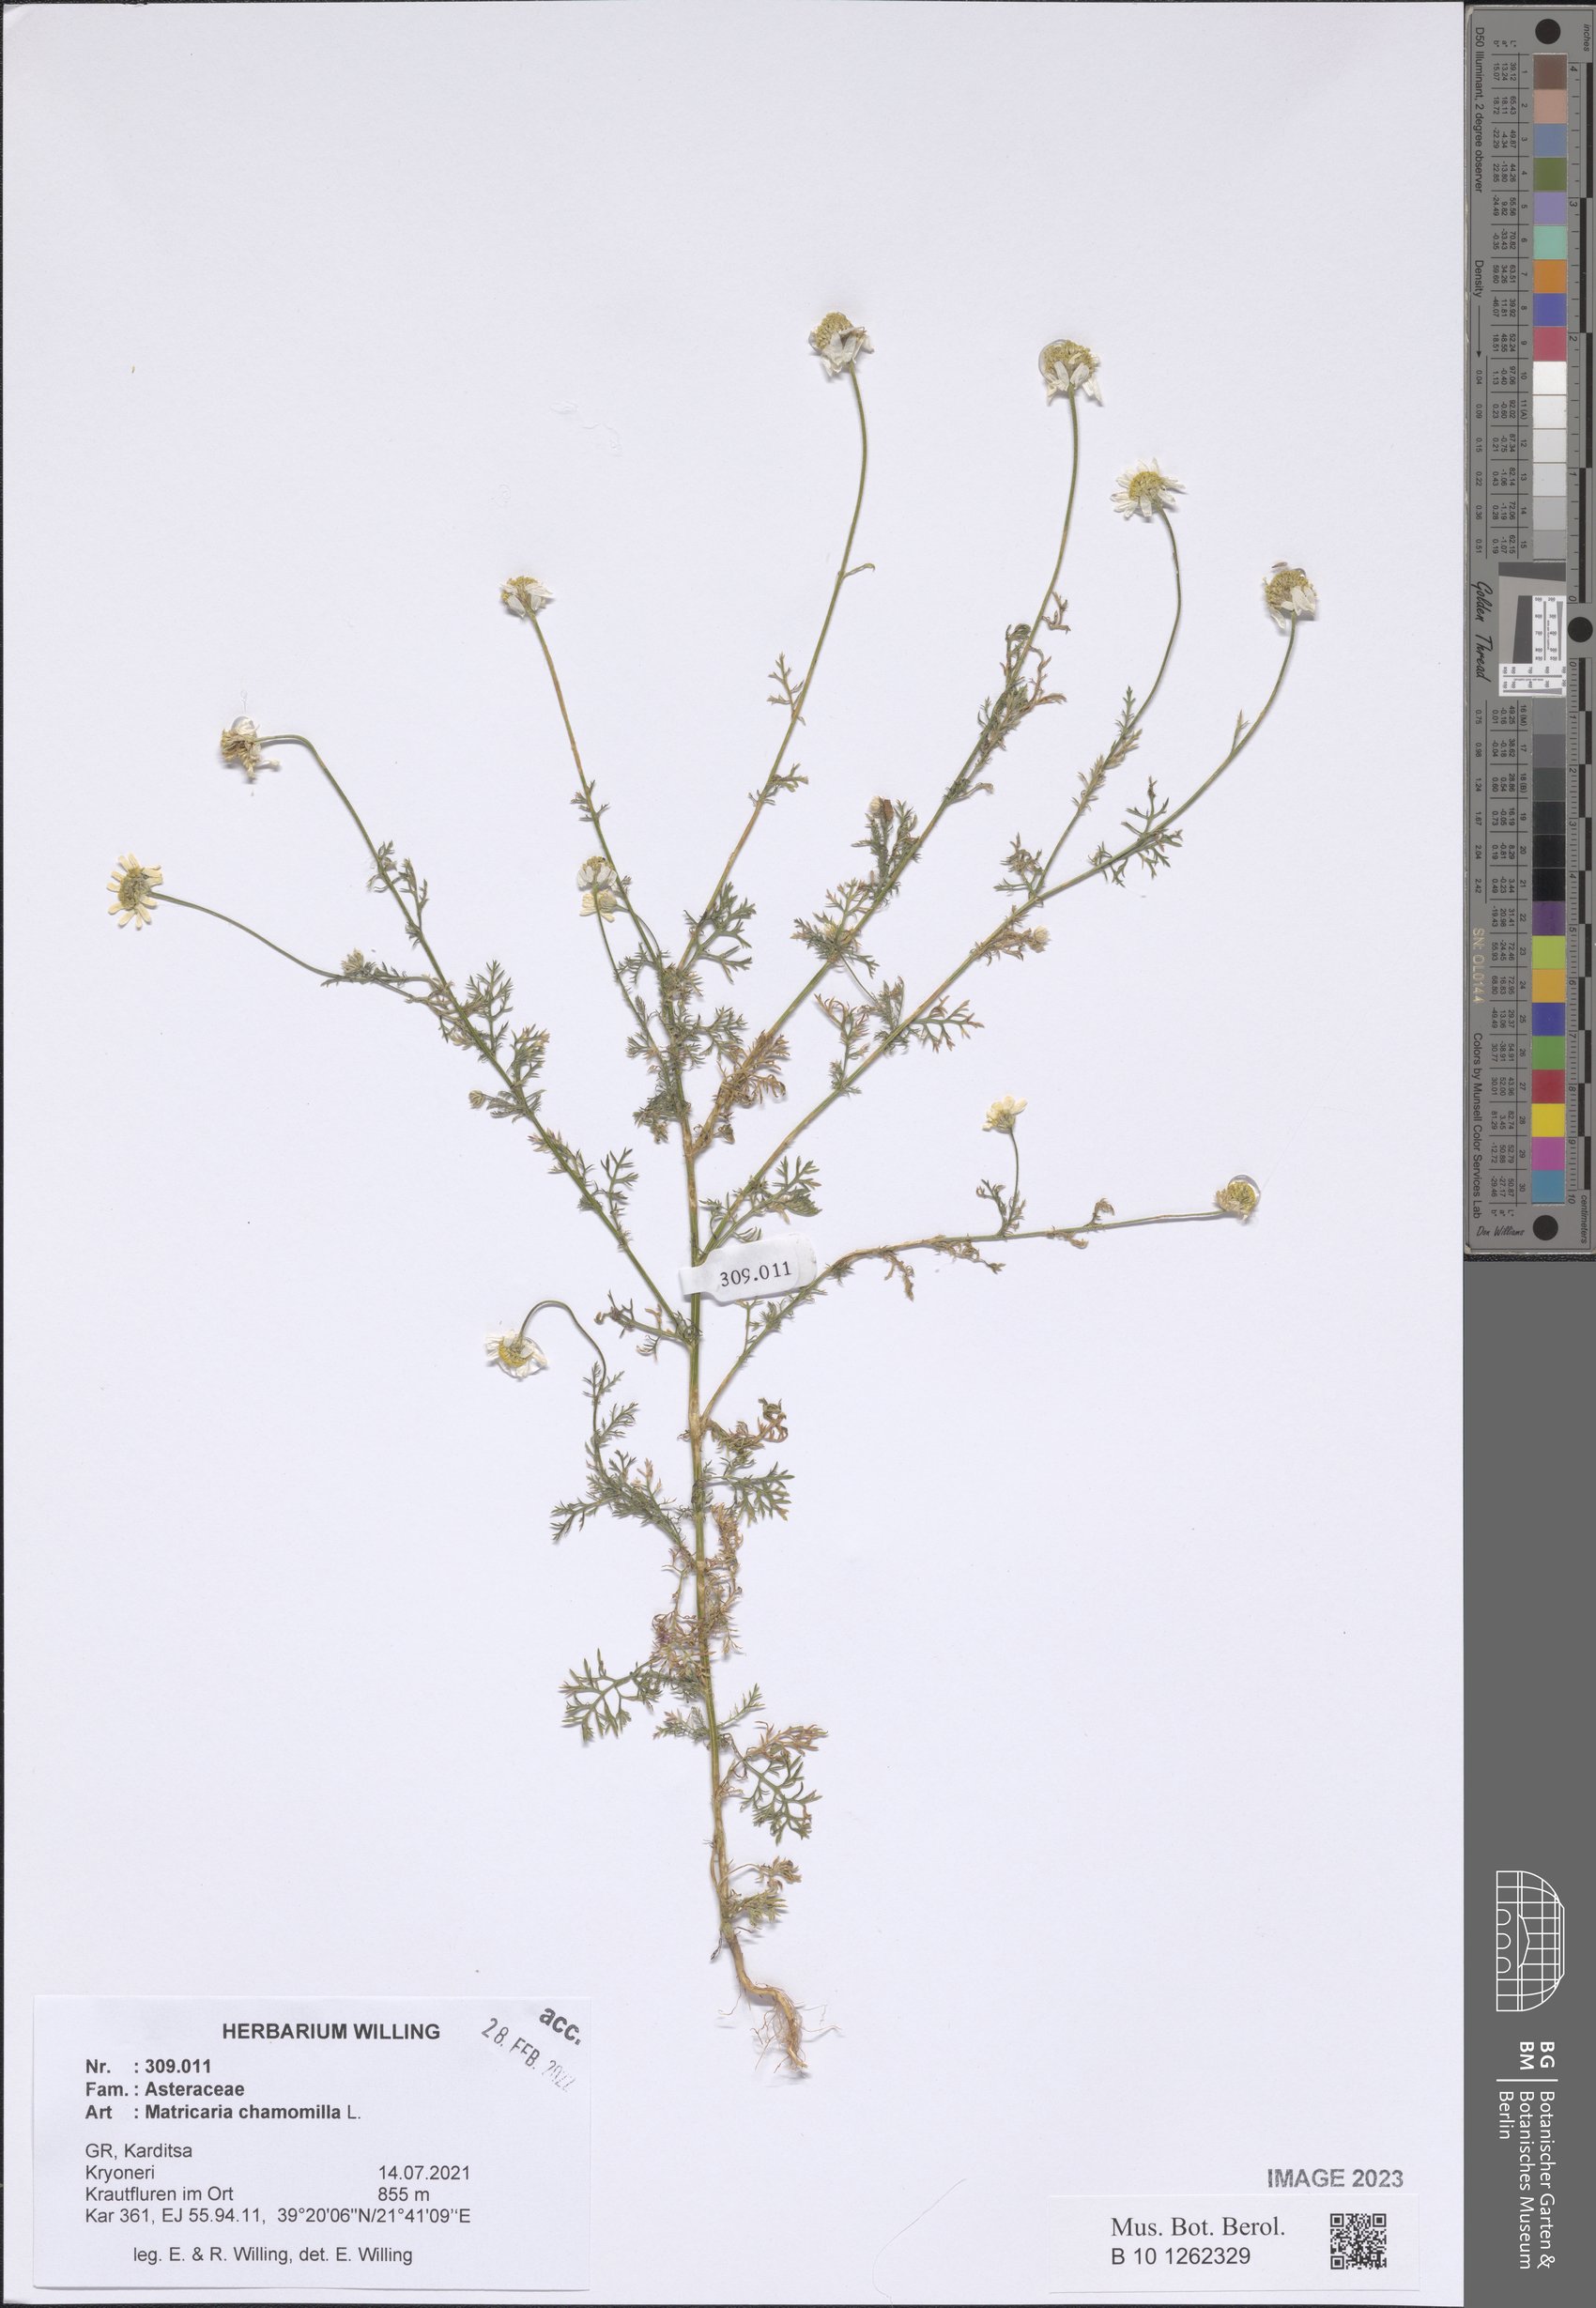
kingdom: Plantae
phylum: Tracheophyta
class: Magnoliopsida
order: Asterales
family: Asteraceae
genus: Matricaria
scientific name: Matricaria chamomilla
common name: Scented mayweed
